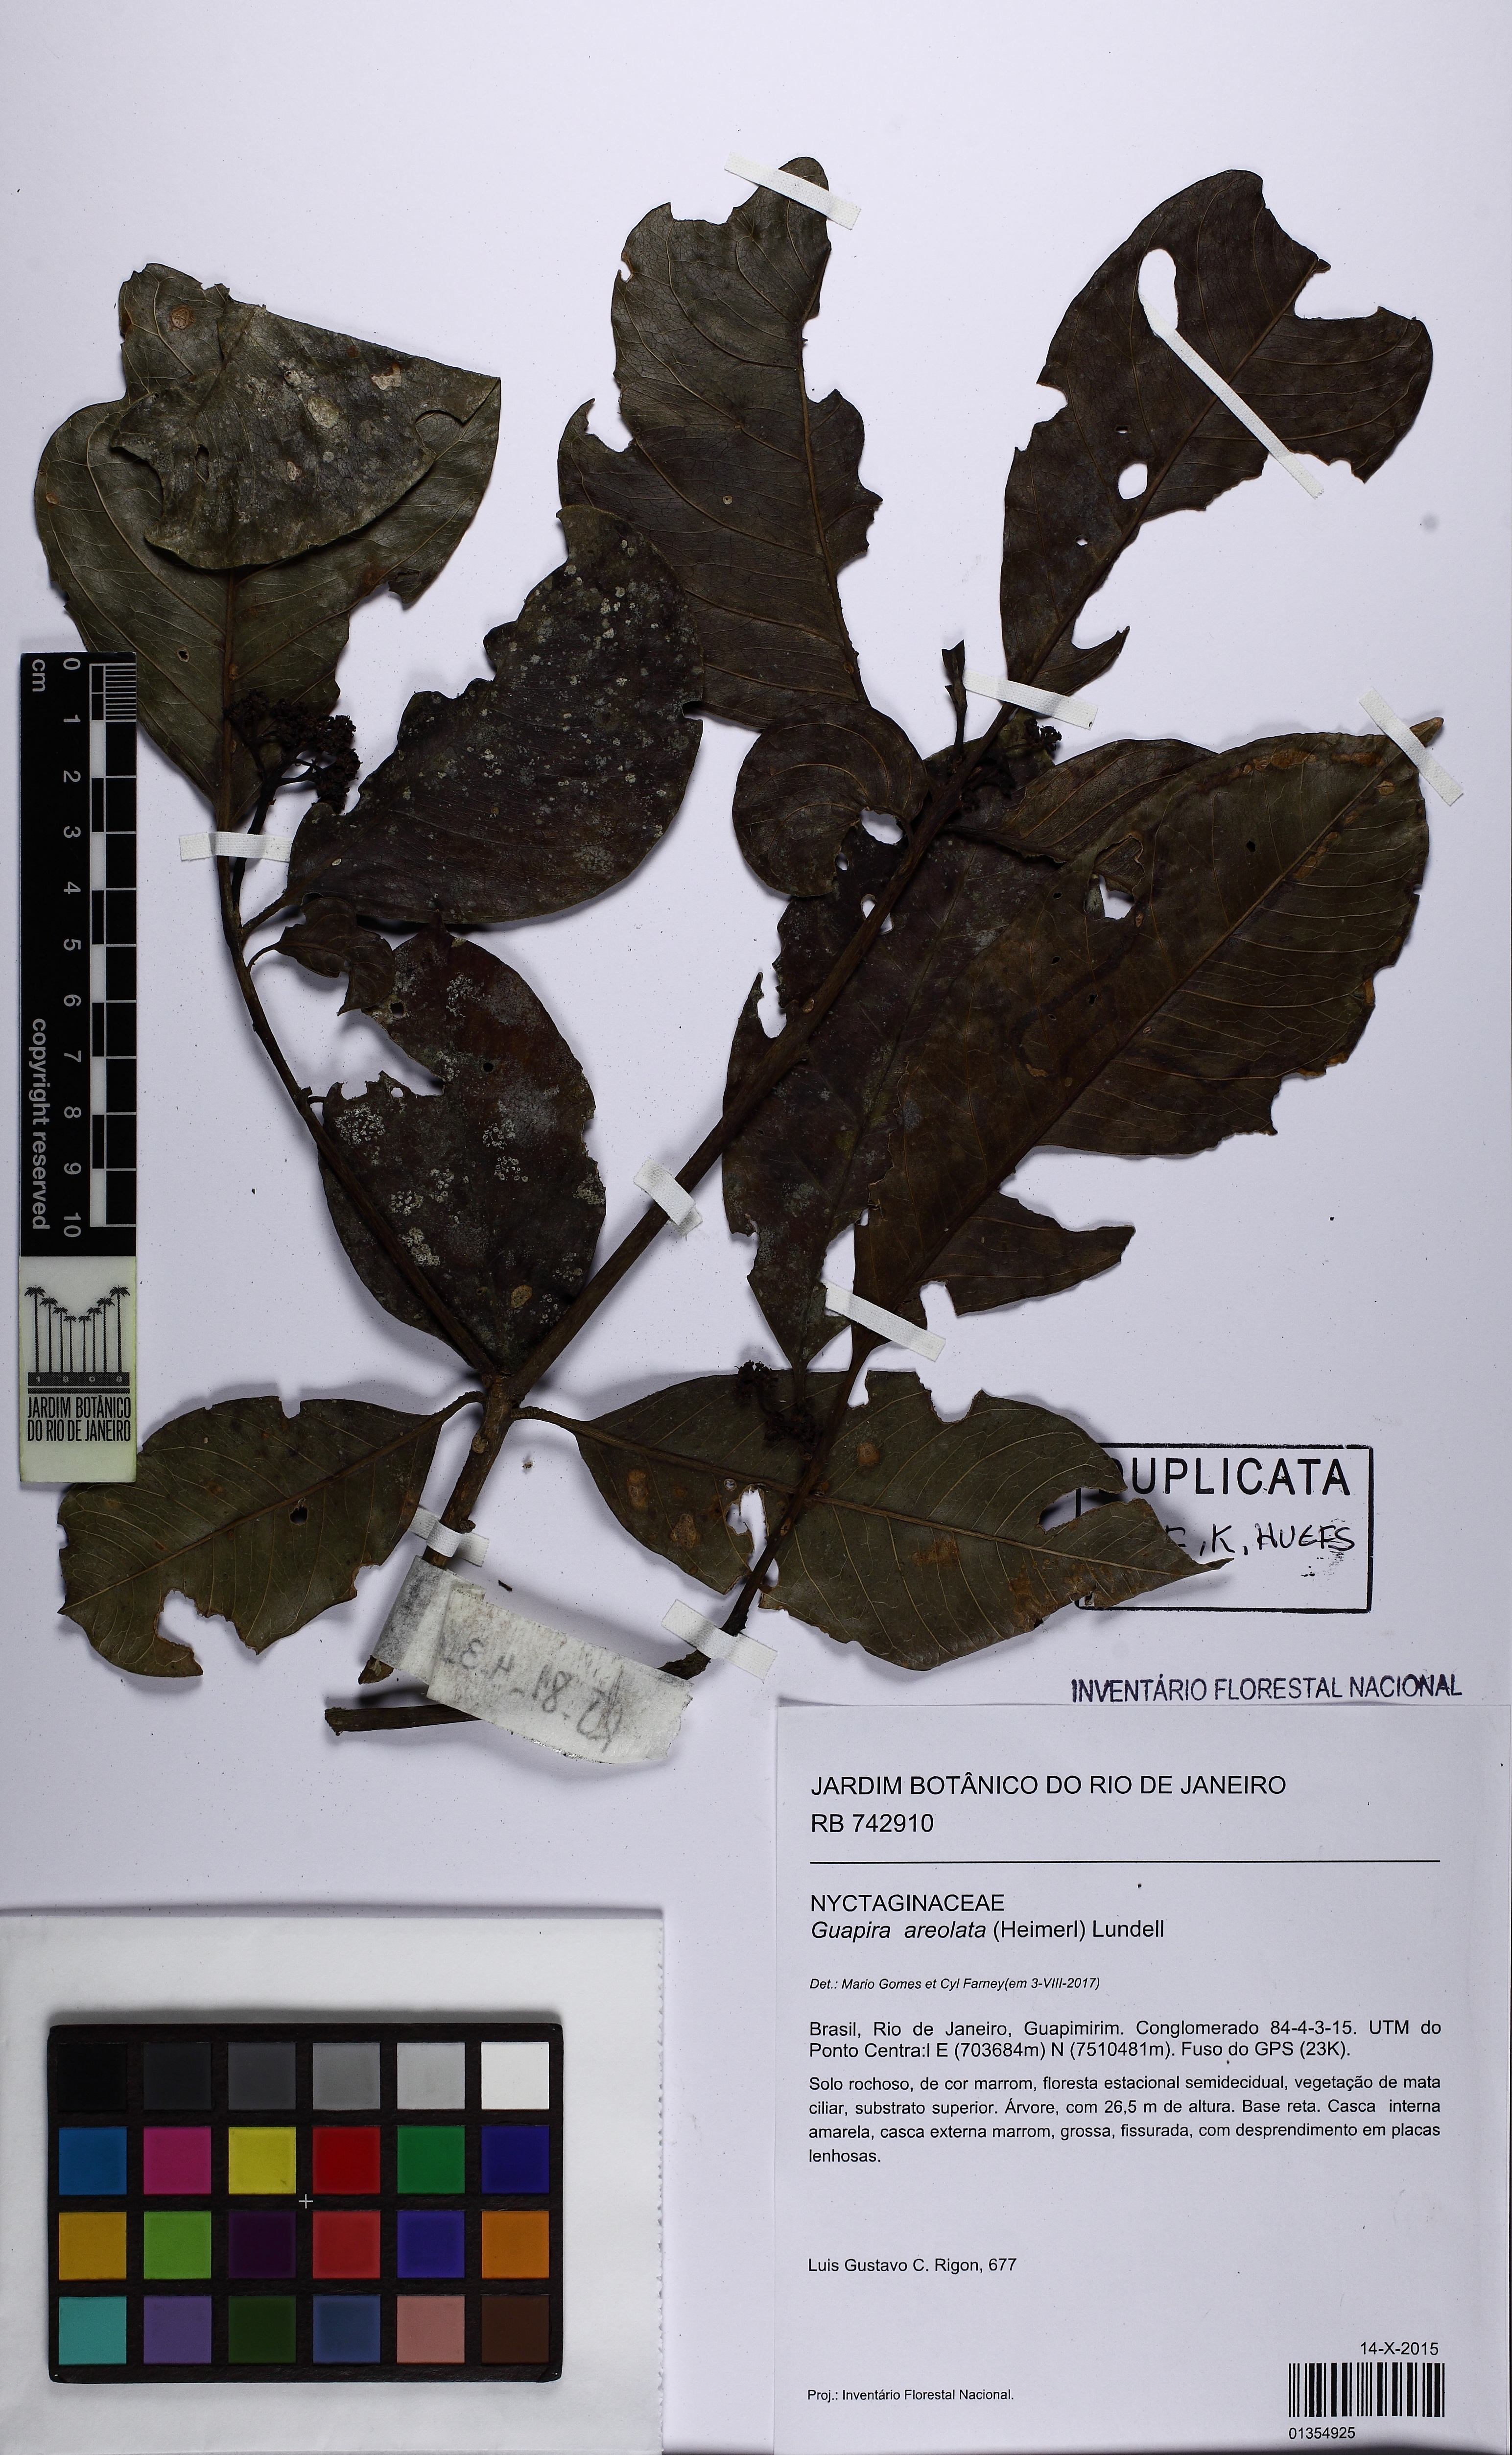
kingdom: Plantae
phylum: Tracheophyta
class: Magnoliopsida
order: Caryophyllales
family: Nyctaginaceae
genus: Guapira
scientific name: Guapira areolata
